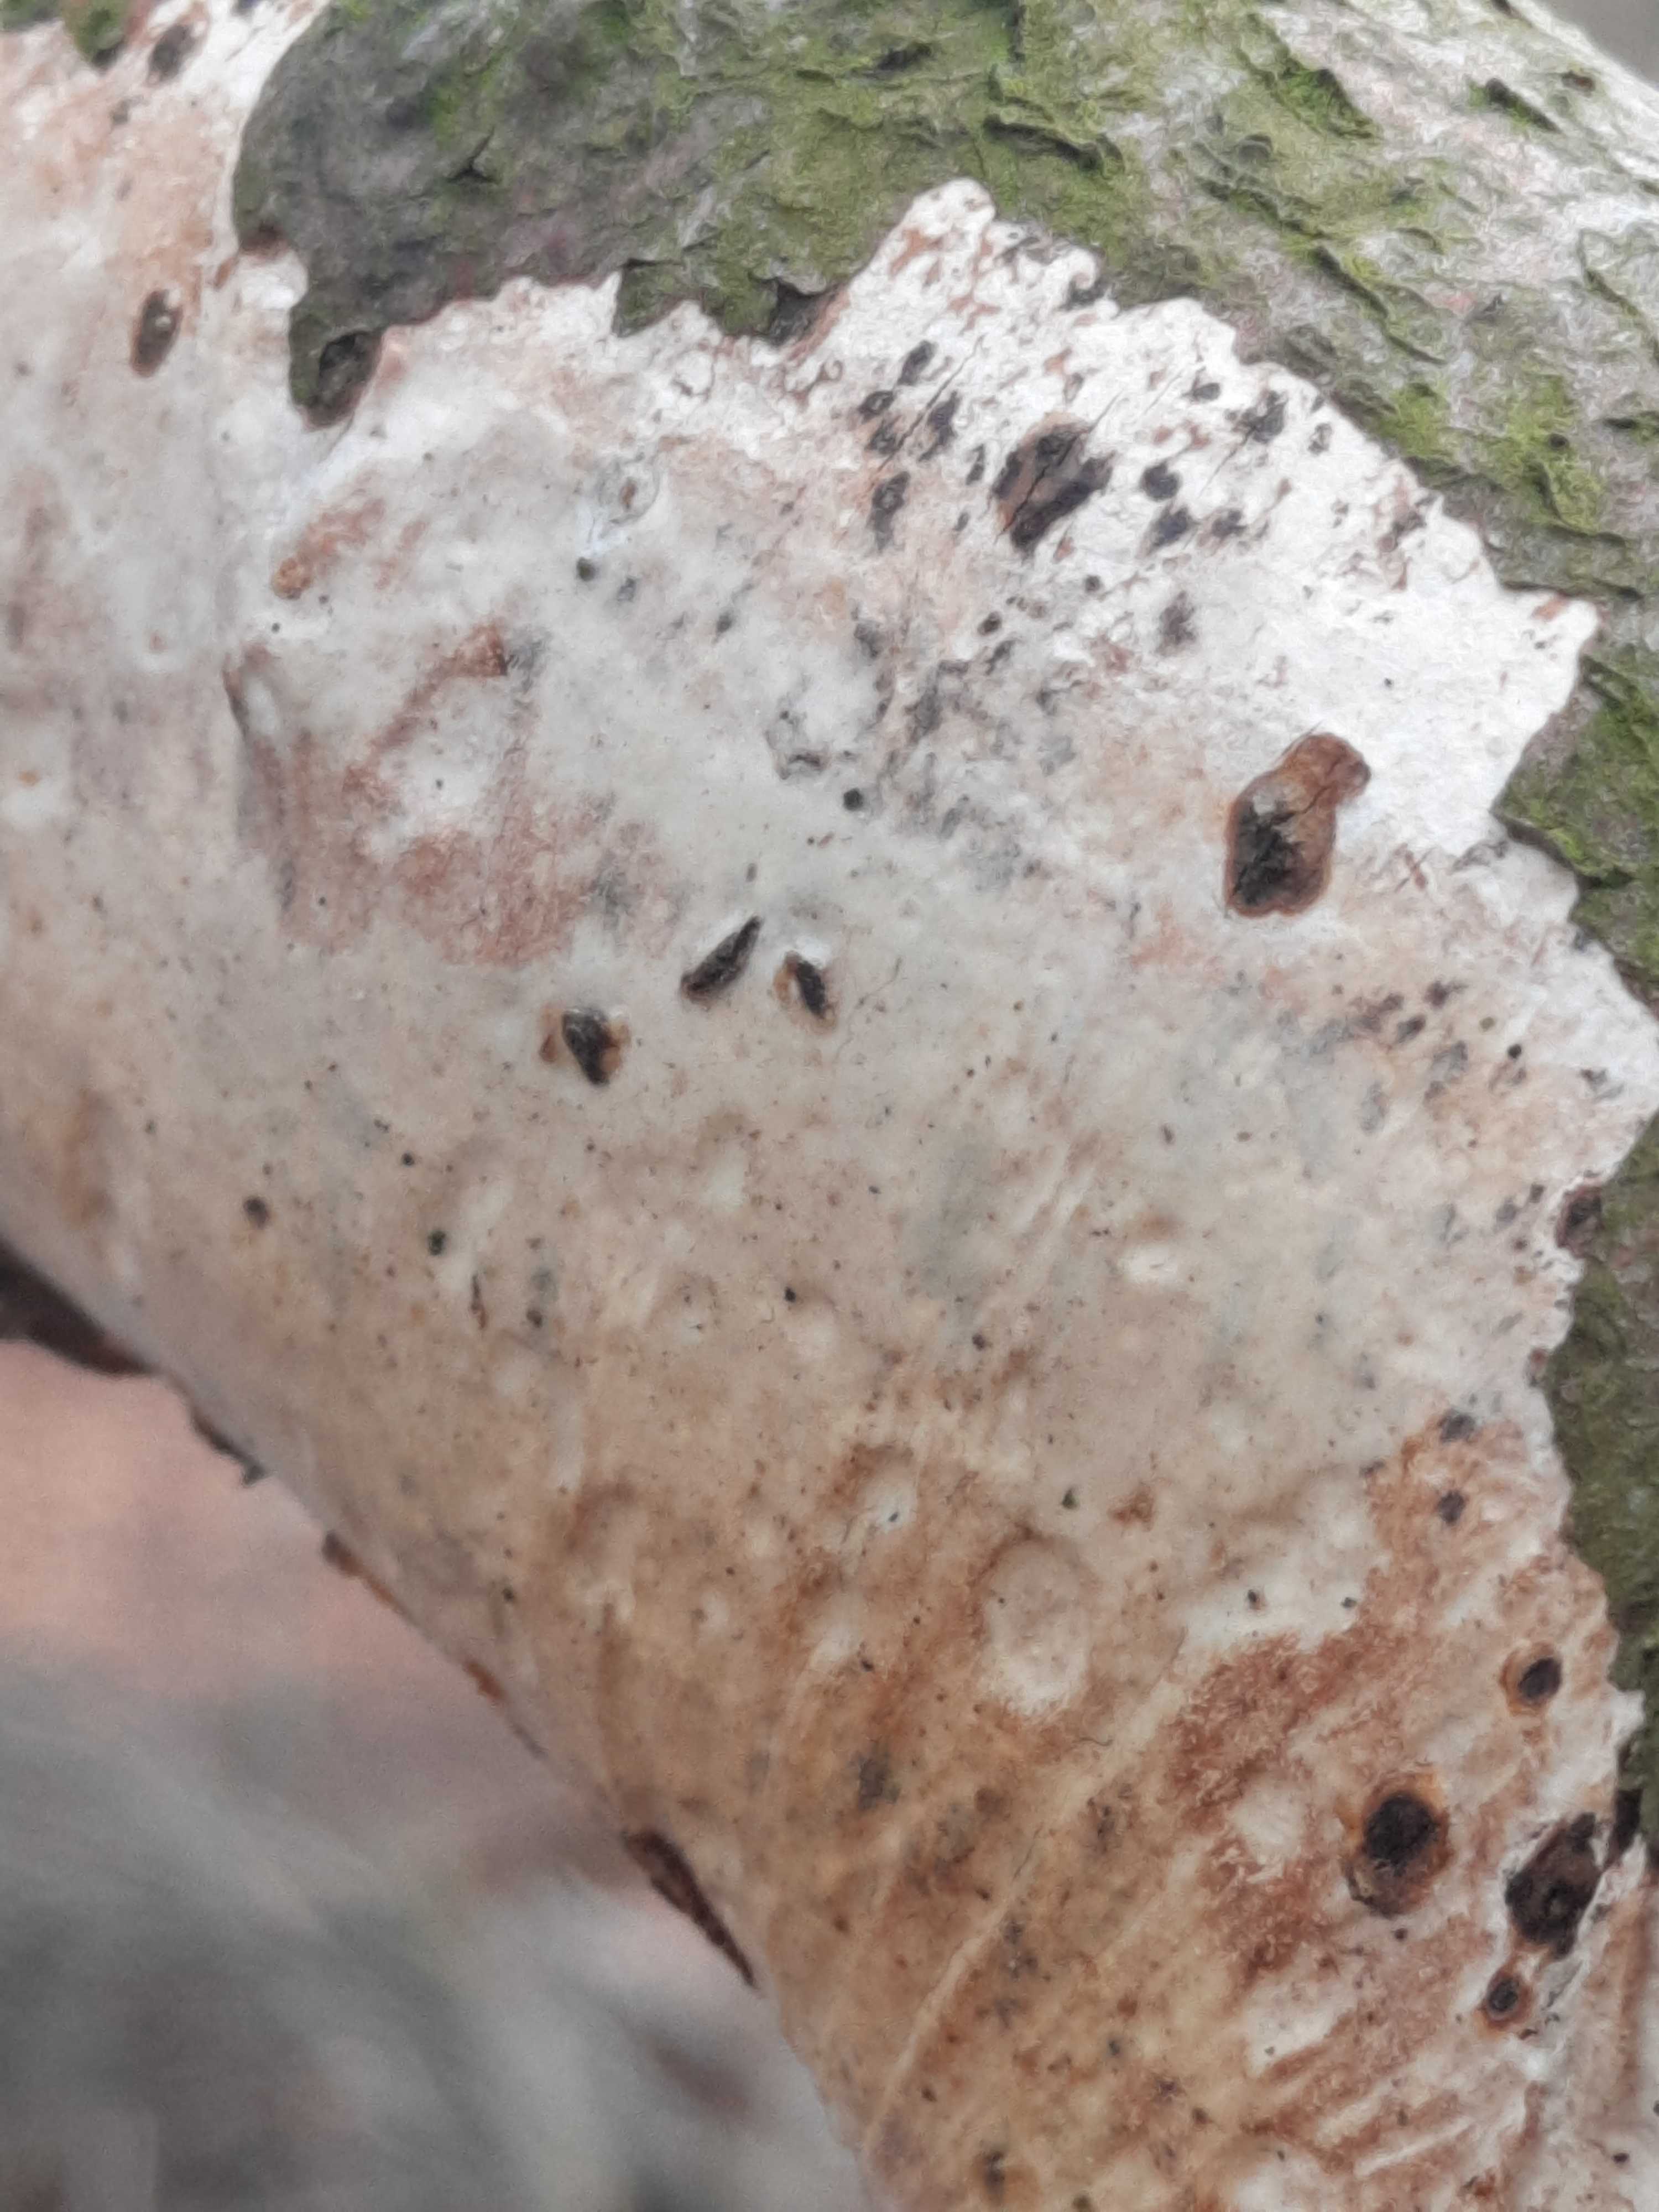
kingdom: Fungi
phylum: Basidiomycota
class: Agaricomycetes
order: Corticiales
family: Vuilleminiaceae
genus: Vuilleminia
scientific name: Vuilleminia comedens
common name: almindelig barksprænger
